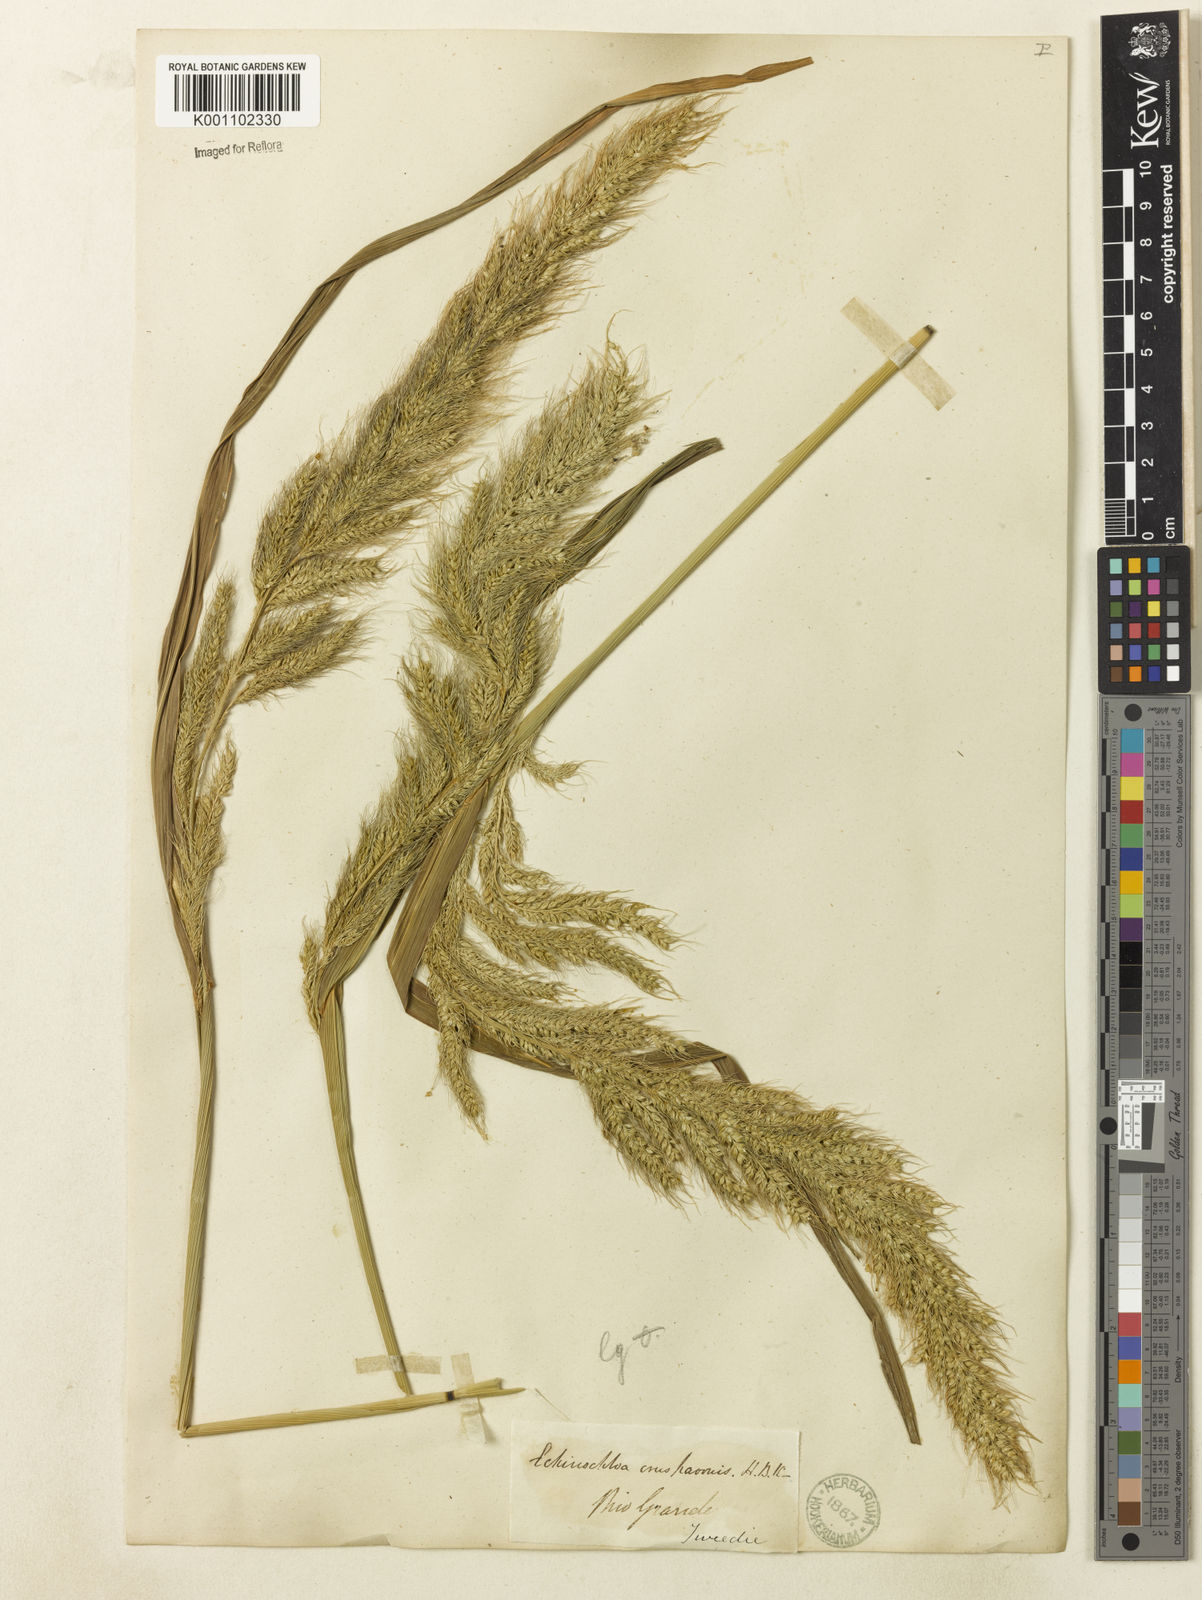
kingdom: Plantae
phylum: Tracheophyta
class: Liliopsida
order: Poales
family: Poaceae
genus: Echinochloa
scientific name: Echinochloa walteri
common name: Coast barnyard grass
